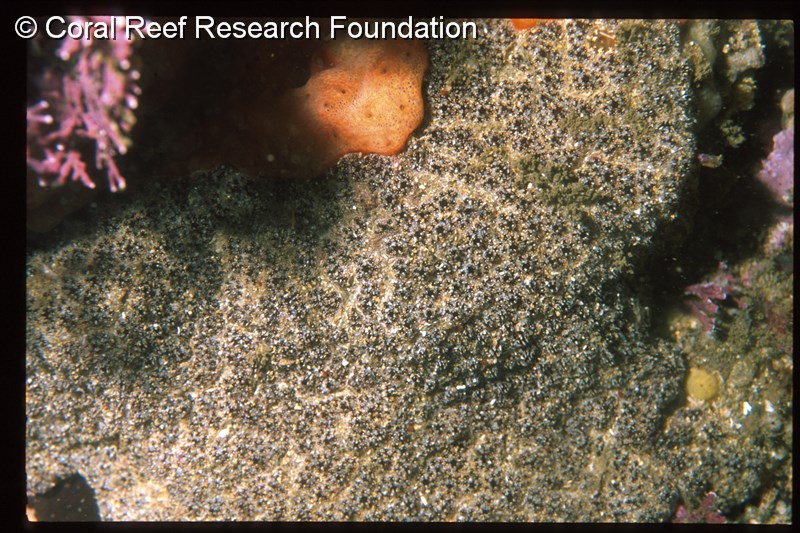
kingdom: Animalia
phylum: Chordata
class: Ascidiacea
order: Stolidobranchia
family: Styelidae
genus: Botryllus
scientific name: Botryllus mortenseni
